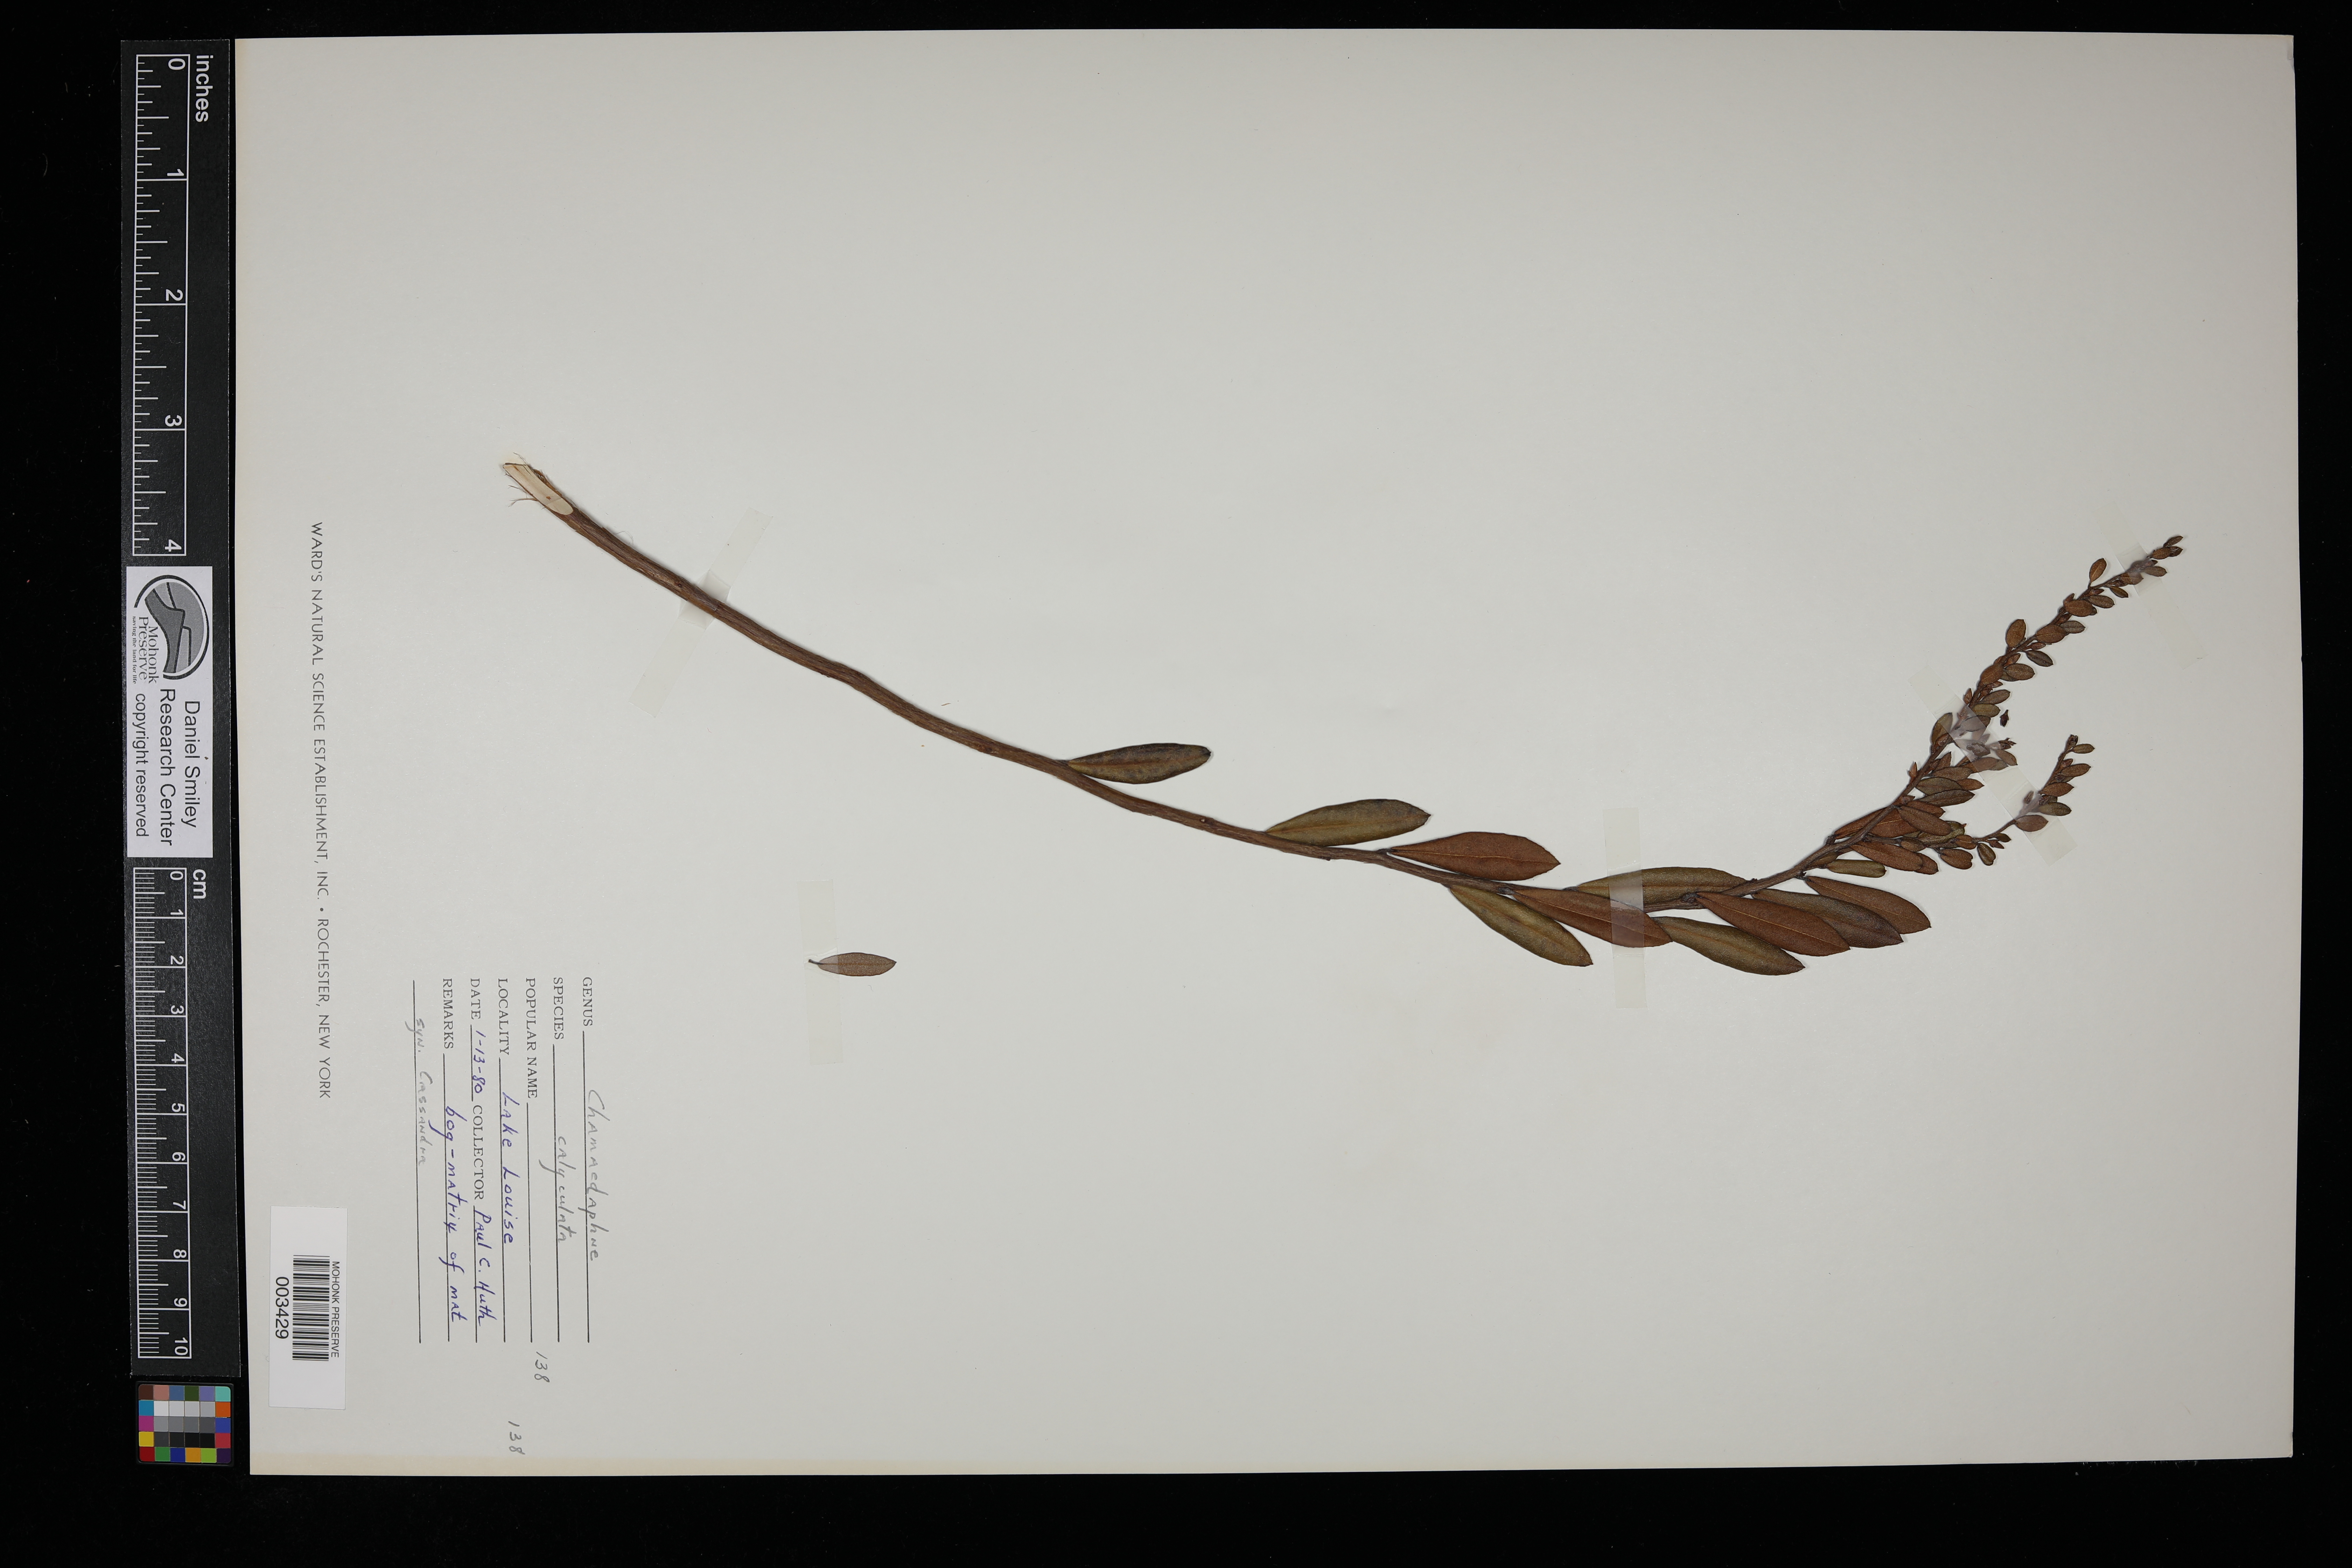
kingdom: Plantae
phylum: Tracheophyta
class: Magnoliopsida
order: Ericales
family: Ericaceae
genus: Chamaedaphne
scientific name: Chamaedaphne calyculata
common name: Leatherleaf
